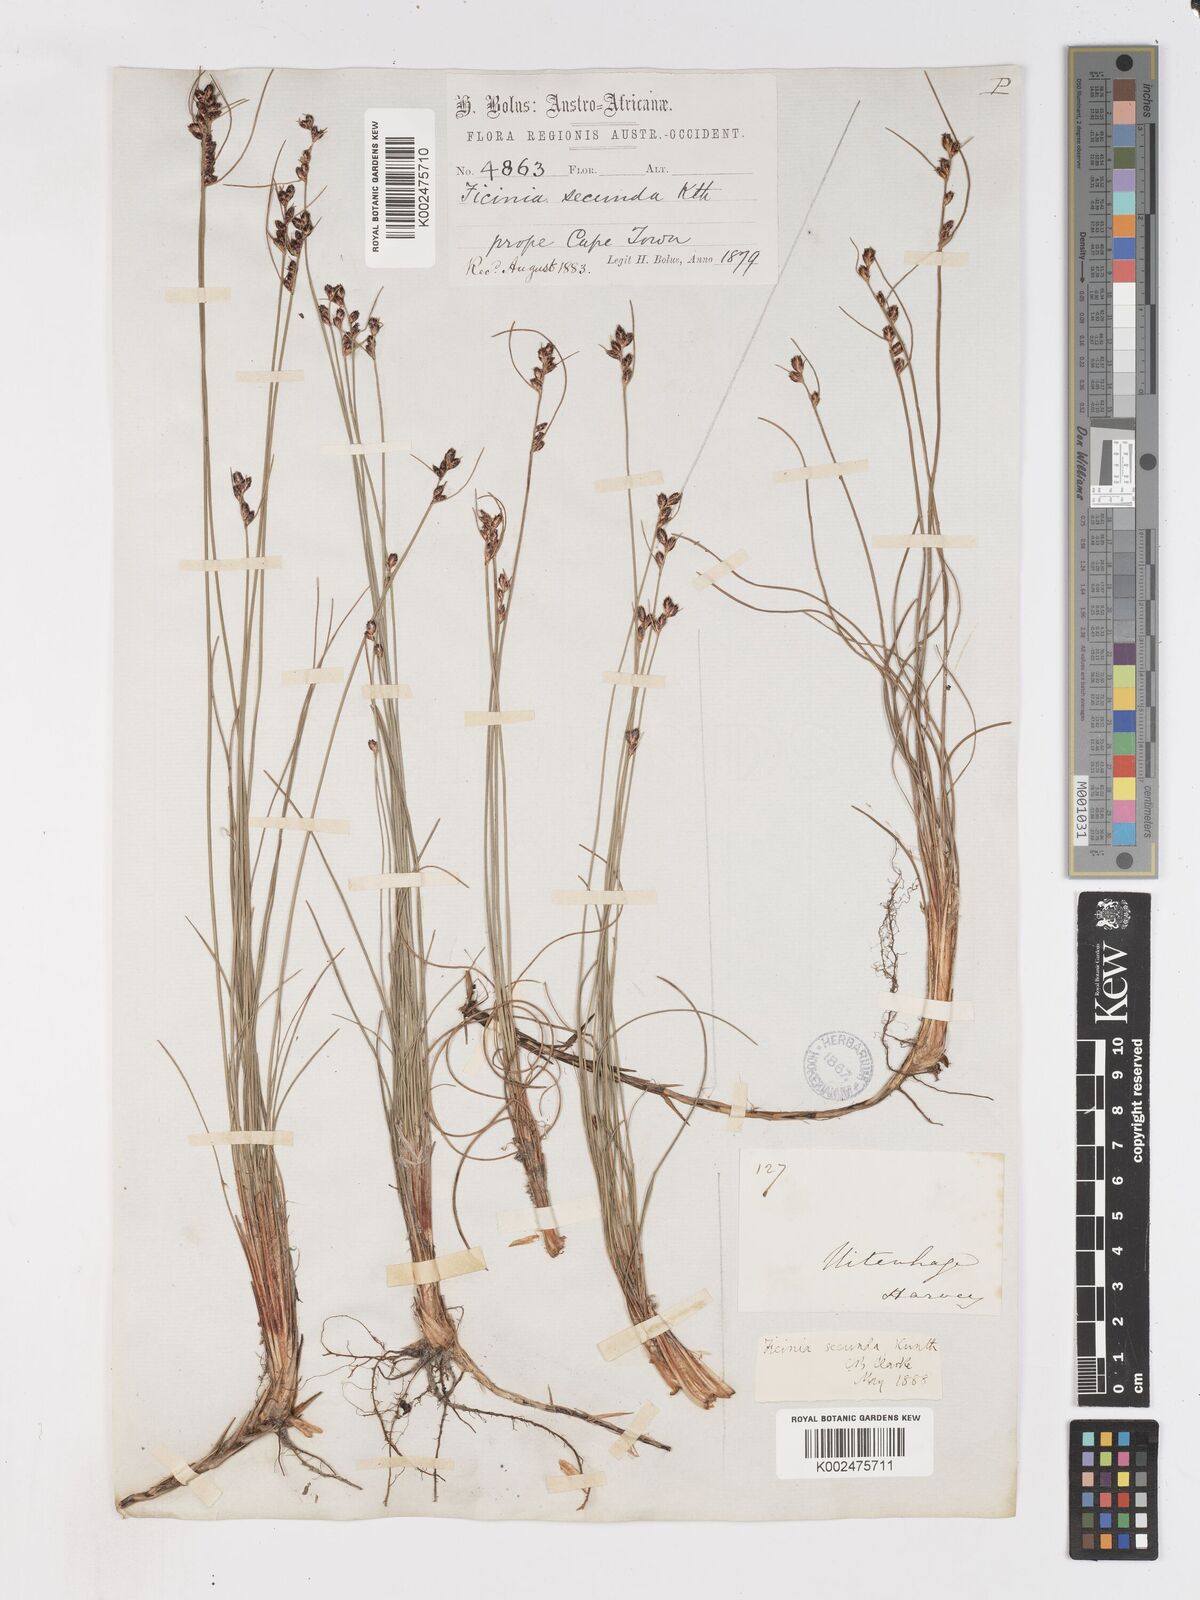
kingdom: Plantae
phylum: Tracheophyta
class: Liliopsida
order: Poales
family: Cyperaceae
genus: Ficinia
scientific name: Ficinia secunda
